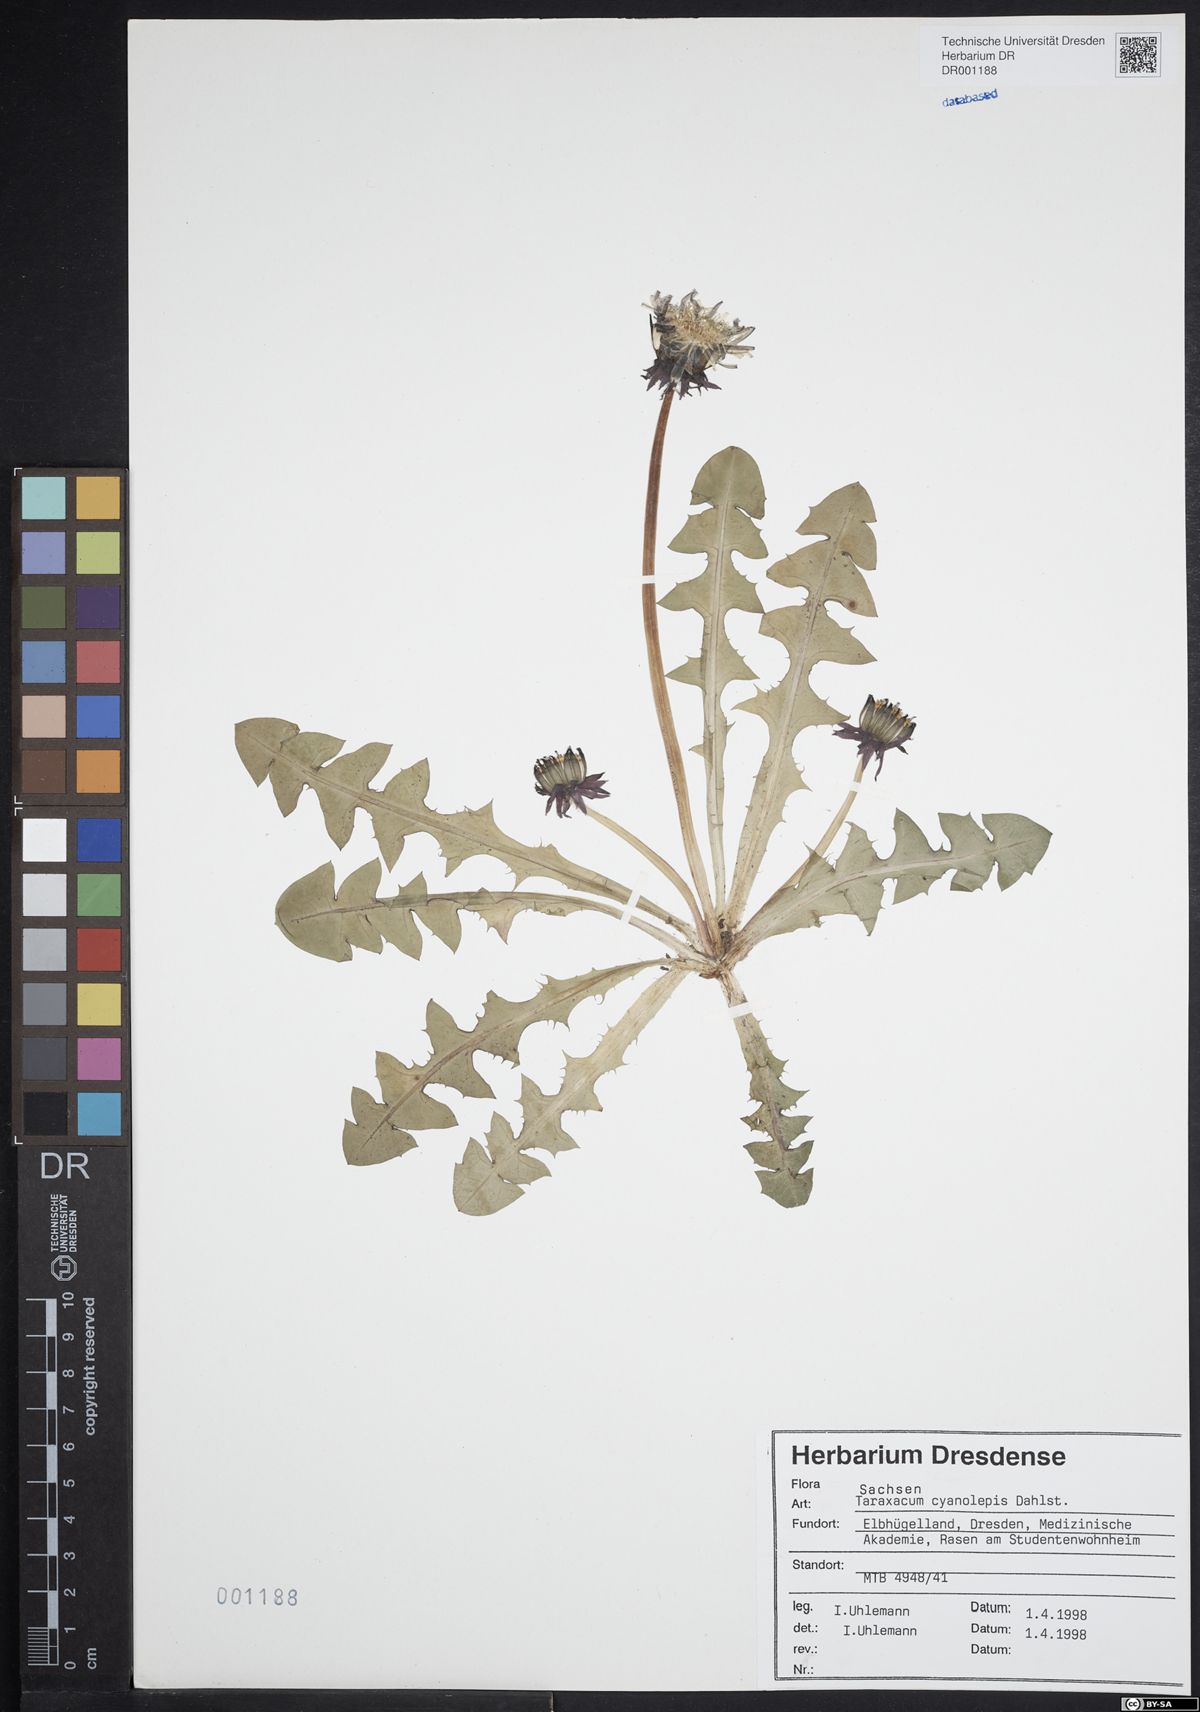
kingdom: Plantae
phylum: Tracheophyta
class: Magnoliopsida
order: Asterales
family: Asteraceae
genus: Taraxacum
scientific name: Taraxacum cyanolepis
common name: Bluish-bracted dandelion
